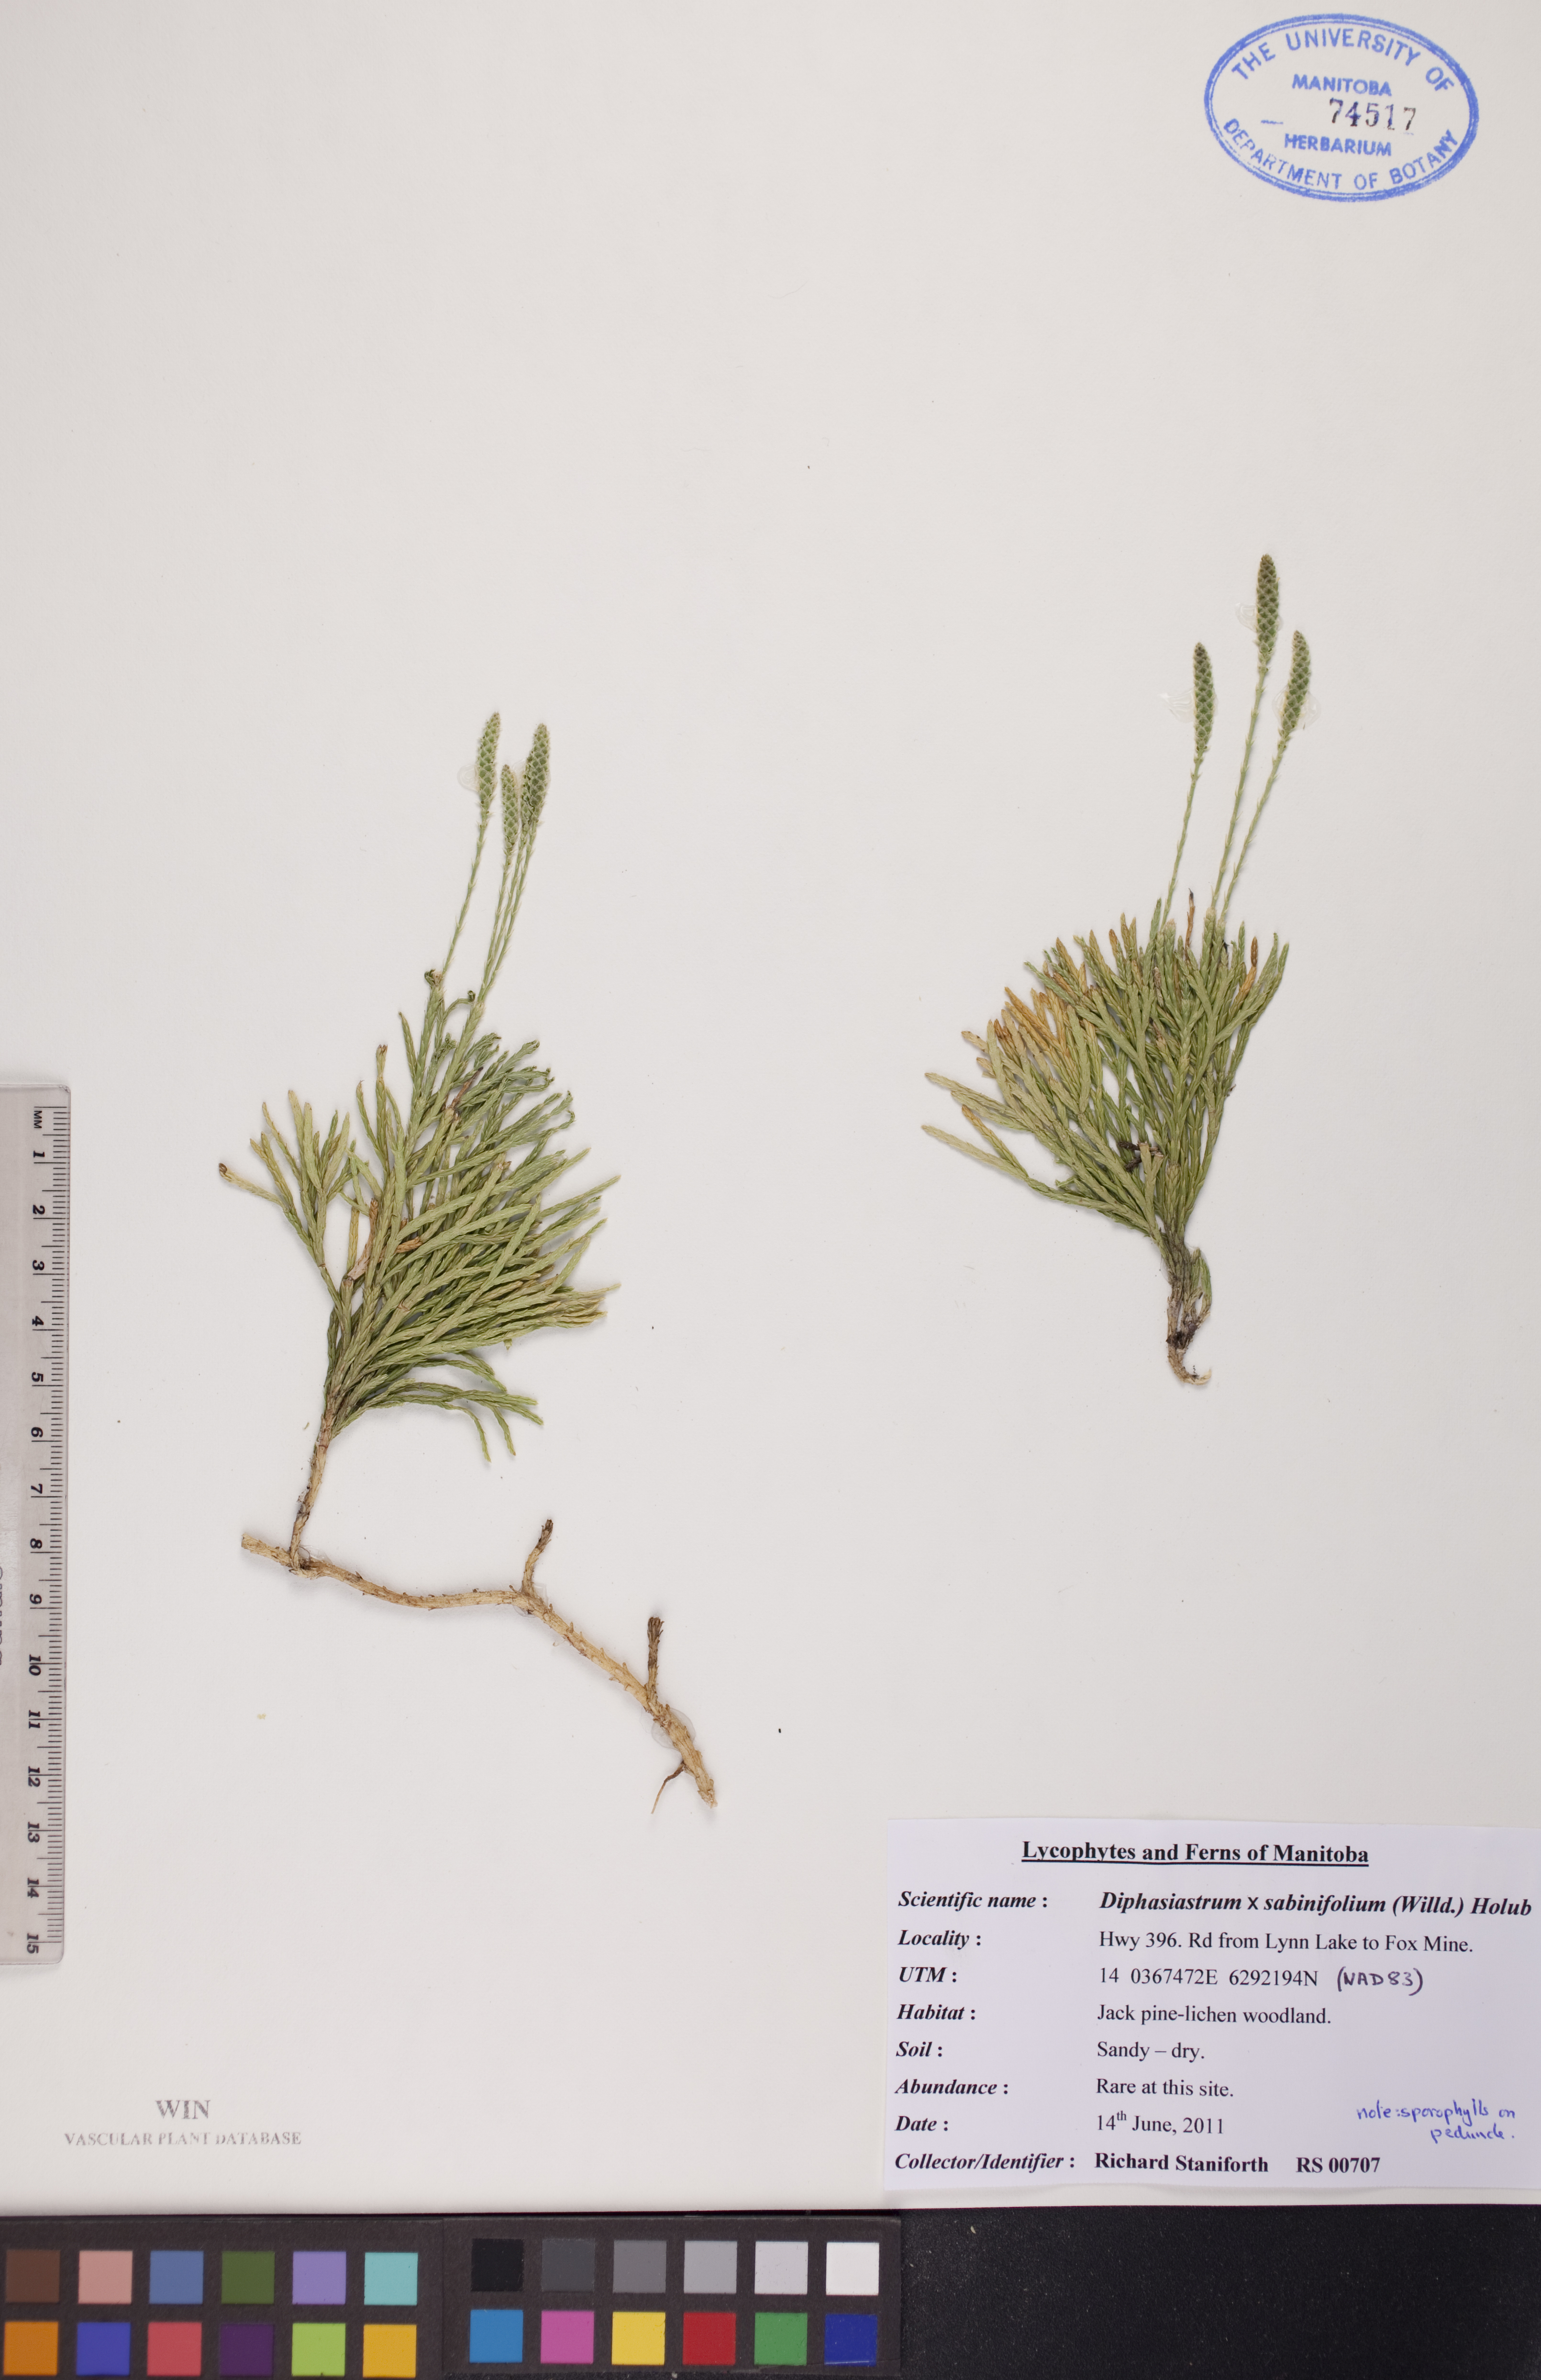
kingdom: Plantae
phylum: Tracheophyta
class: Lycopodiopsida
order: Lycopodiales
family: Lycopodiaceae
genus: Diphasiastrum
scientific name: Diphasiastrum sabinifolium
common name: Juniper clubmoss
